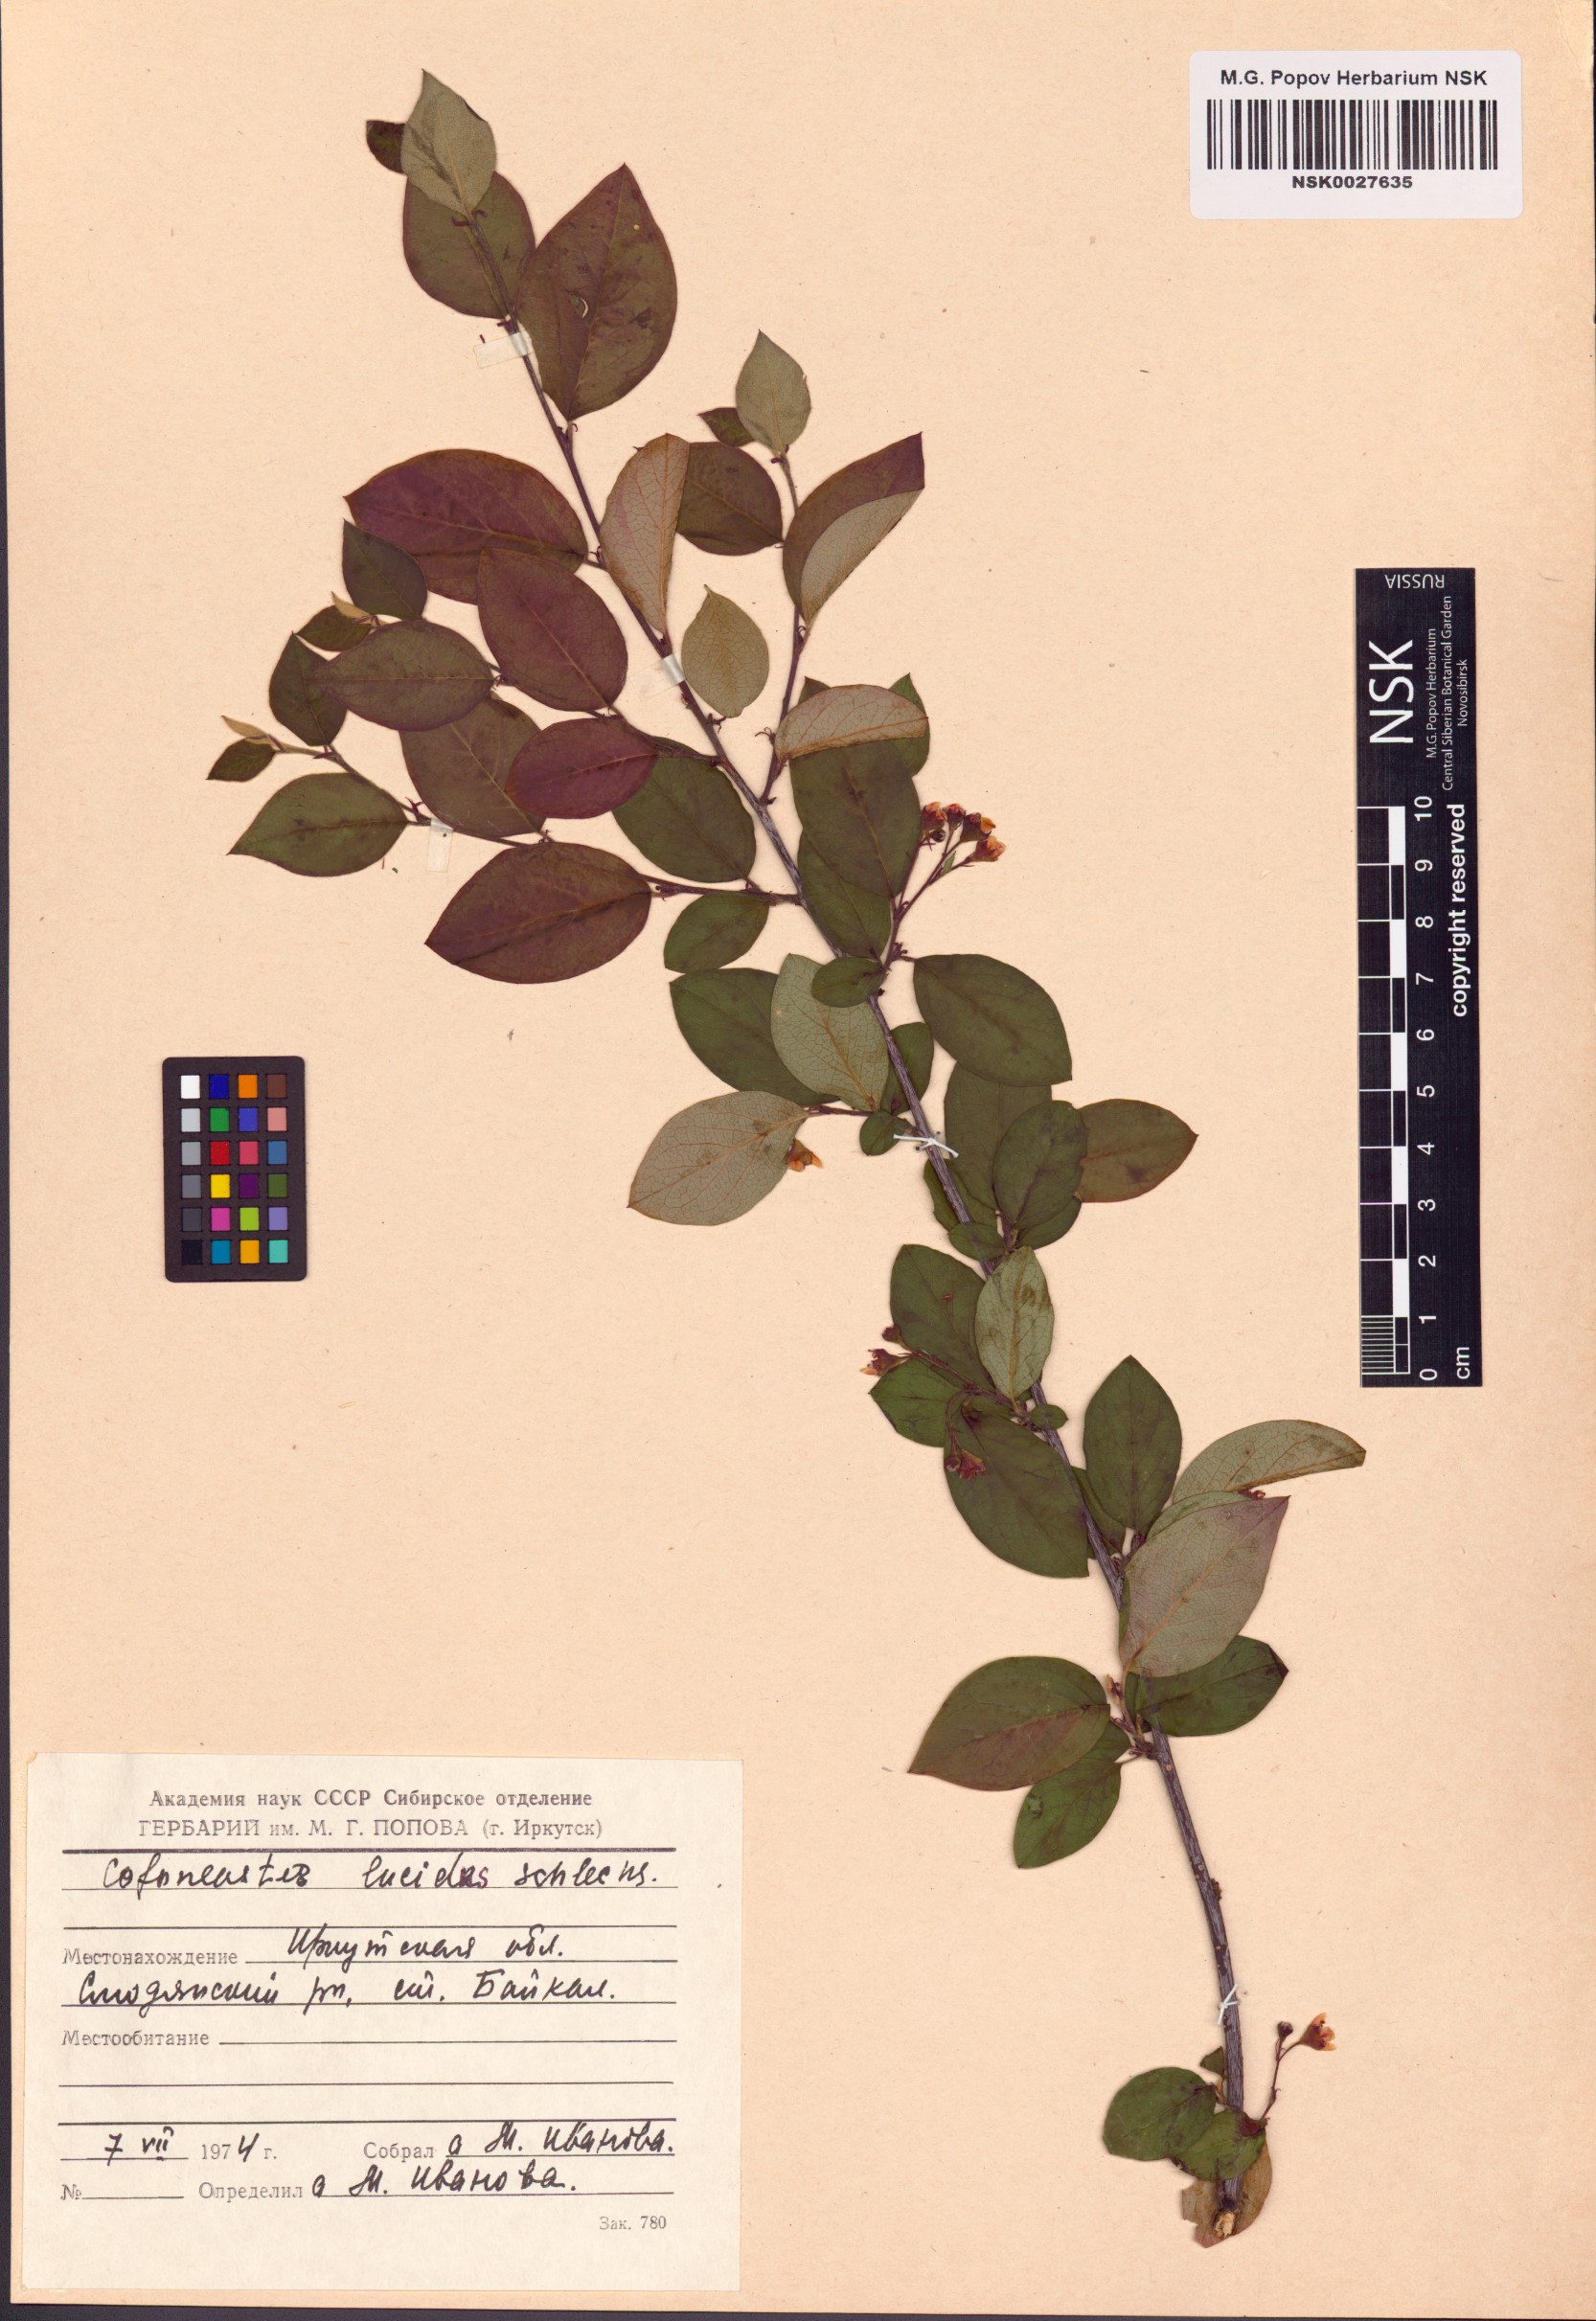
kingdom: Plantae
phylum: Tracheophyta
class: Magnoliopsida
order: Rosales
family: Rosaceae
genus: Cotoneaster
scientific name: Cotoneaster acutifolius
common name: Peking cotoneaster
